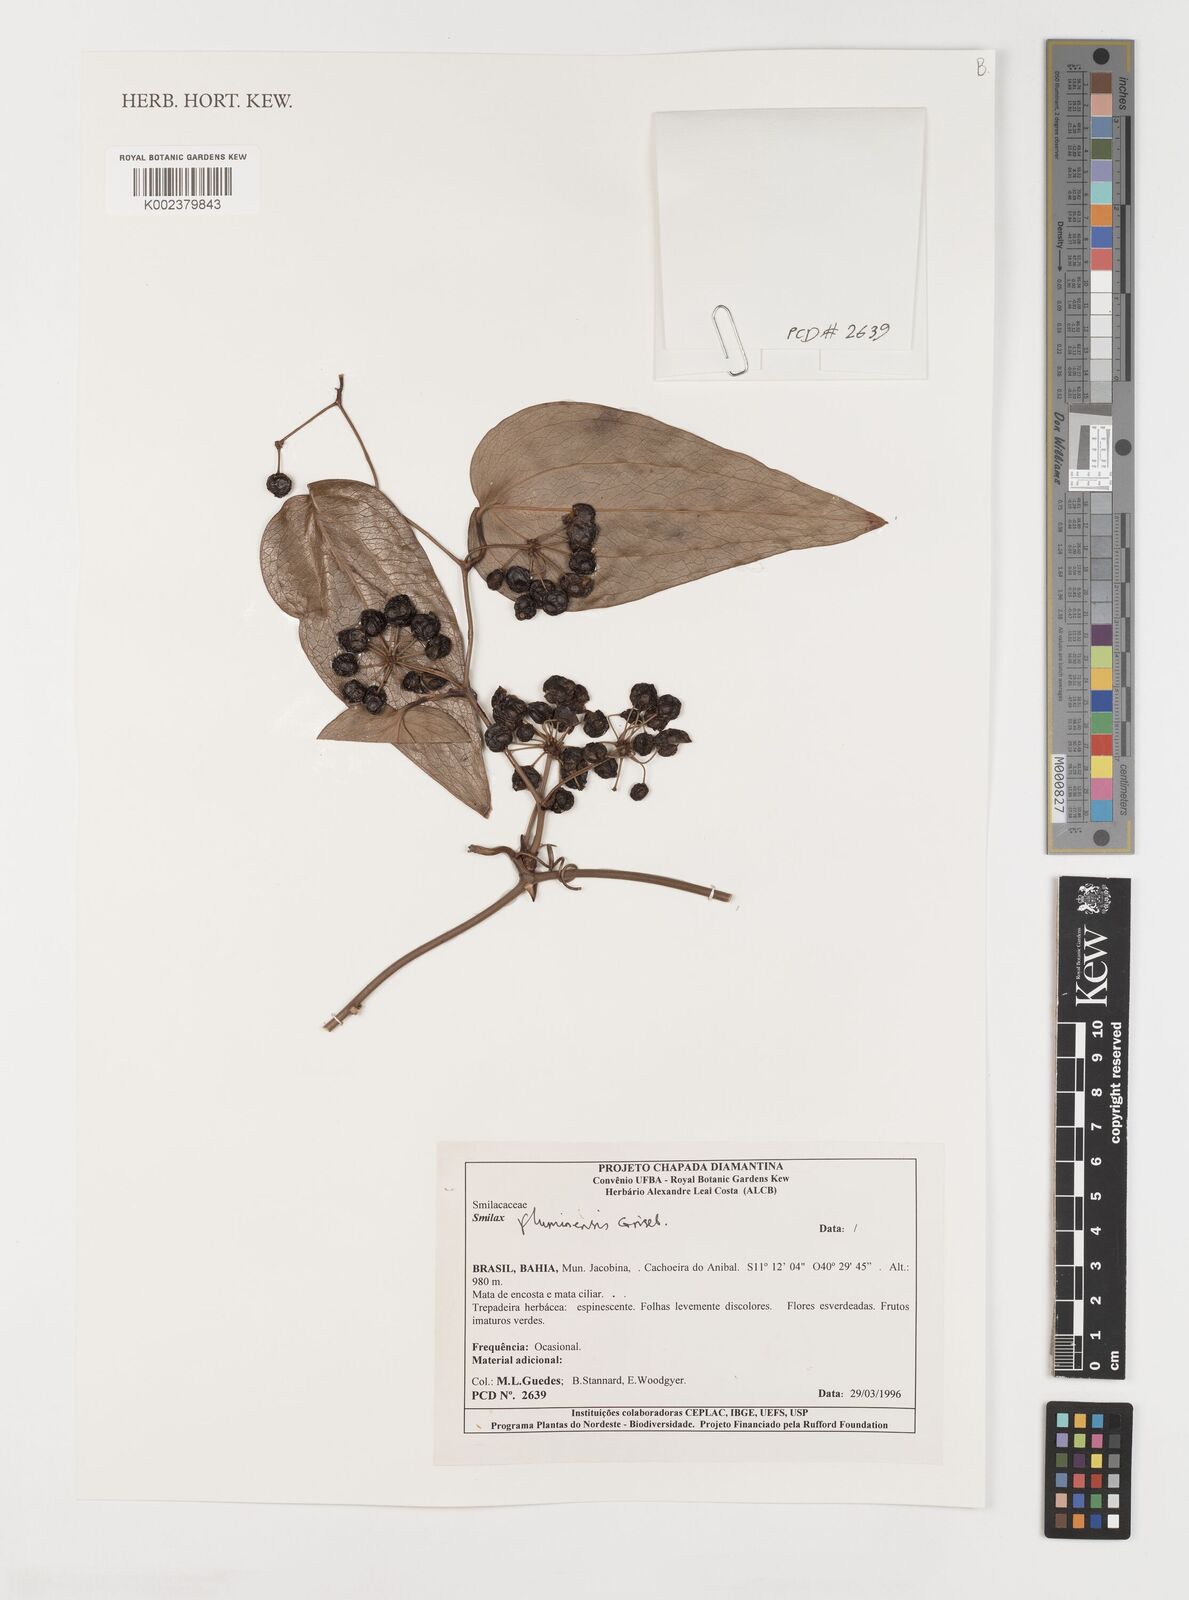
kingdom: Plantae
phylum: Tracheophyta
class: Liliopsida
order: Liliales
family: Smilacaceae
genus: Smilax
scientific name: Smilax fluminensis
